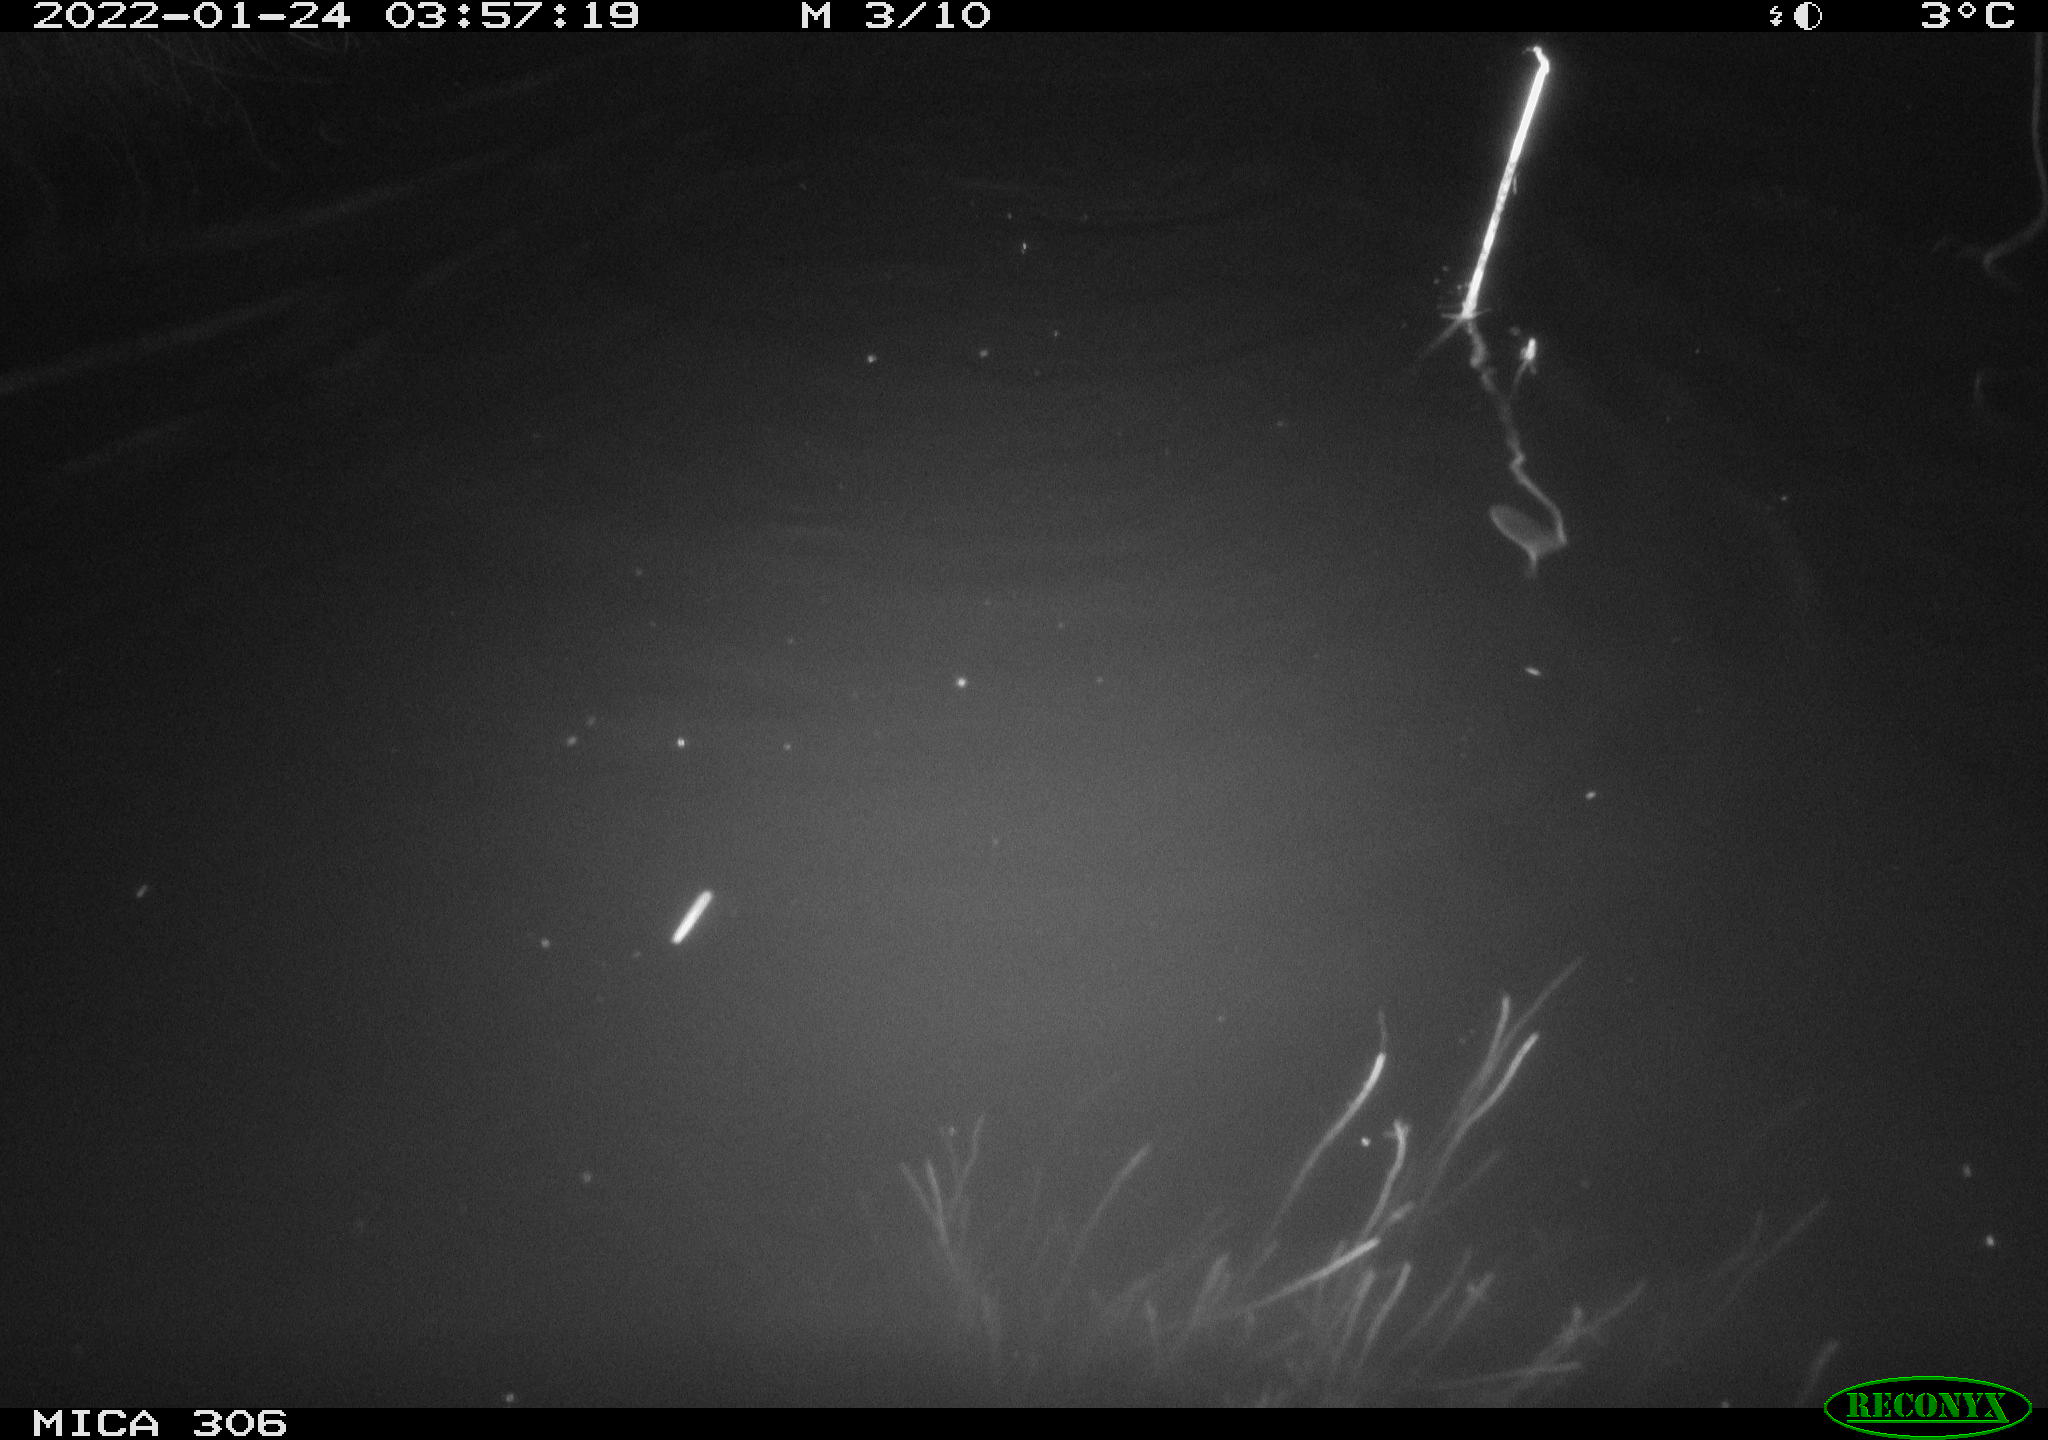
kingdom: Animalia
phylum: Chordata
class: Mammalia
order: Rodentia
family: Cricetidae
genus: Ondatra
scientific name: Ondatra zibethicus
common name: Muskrat
